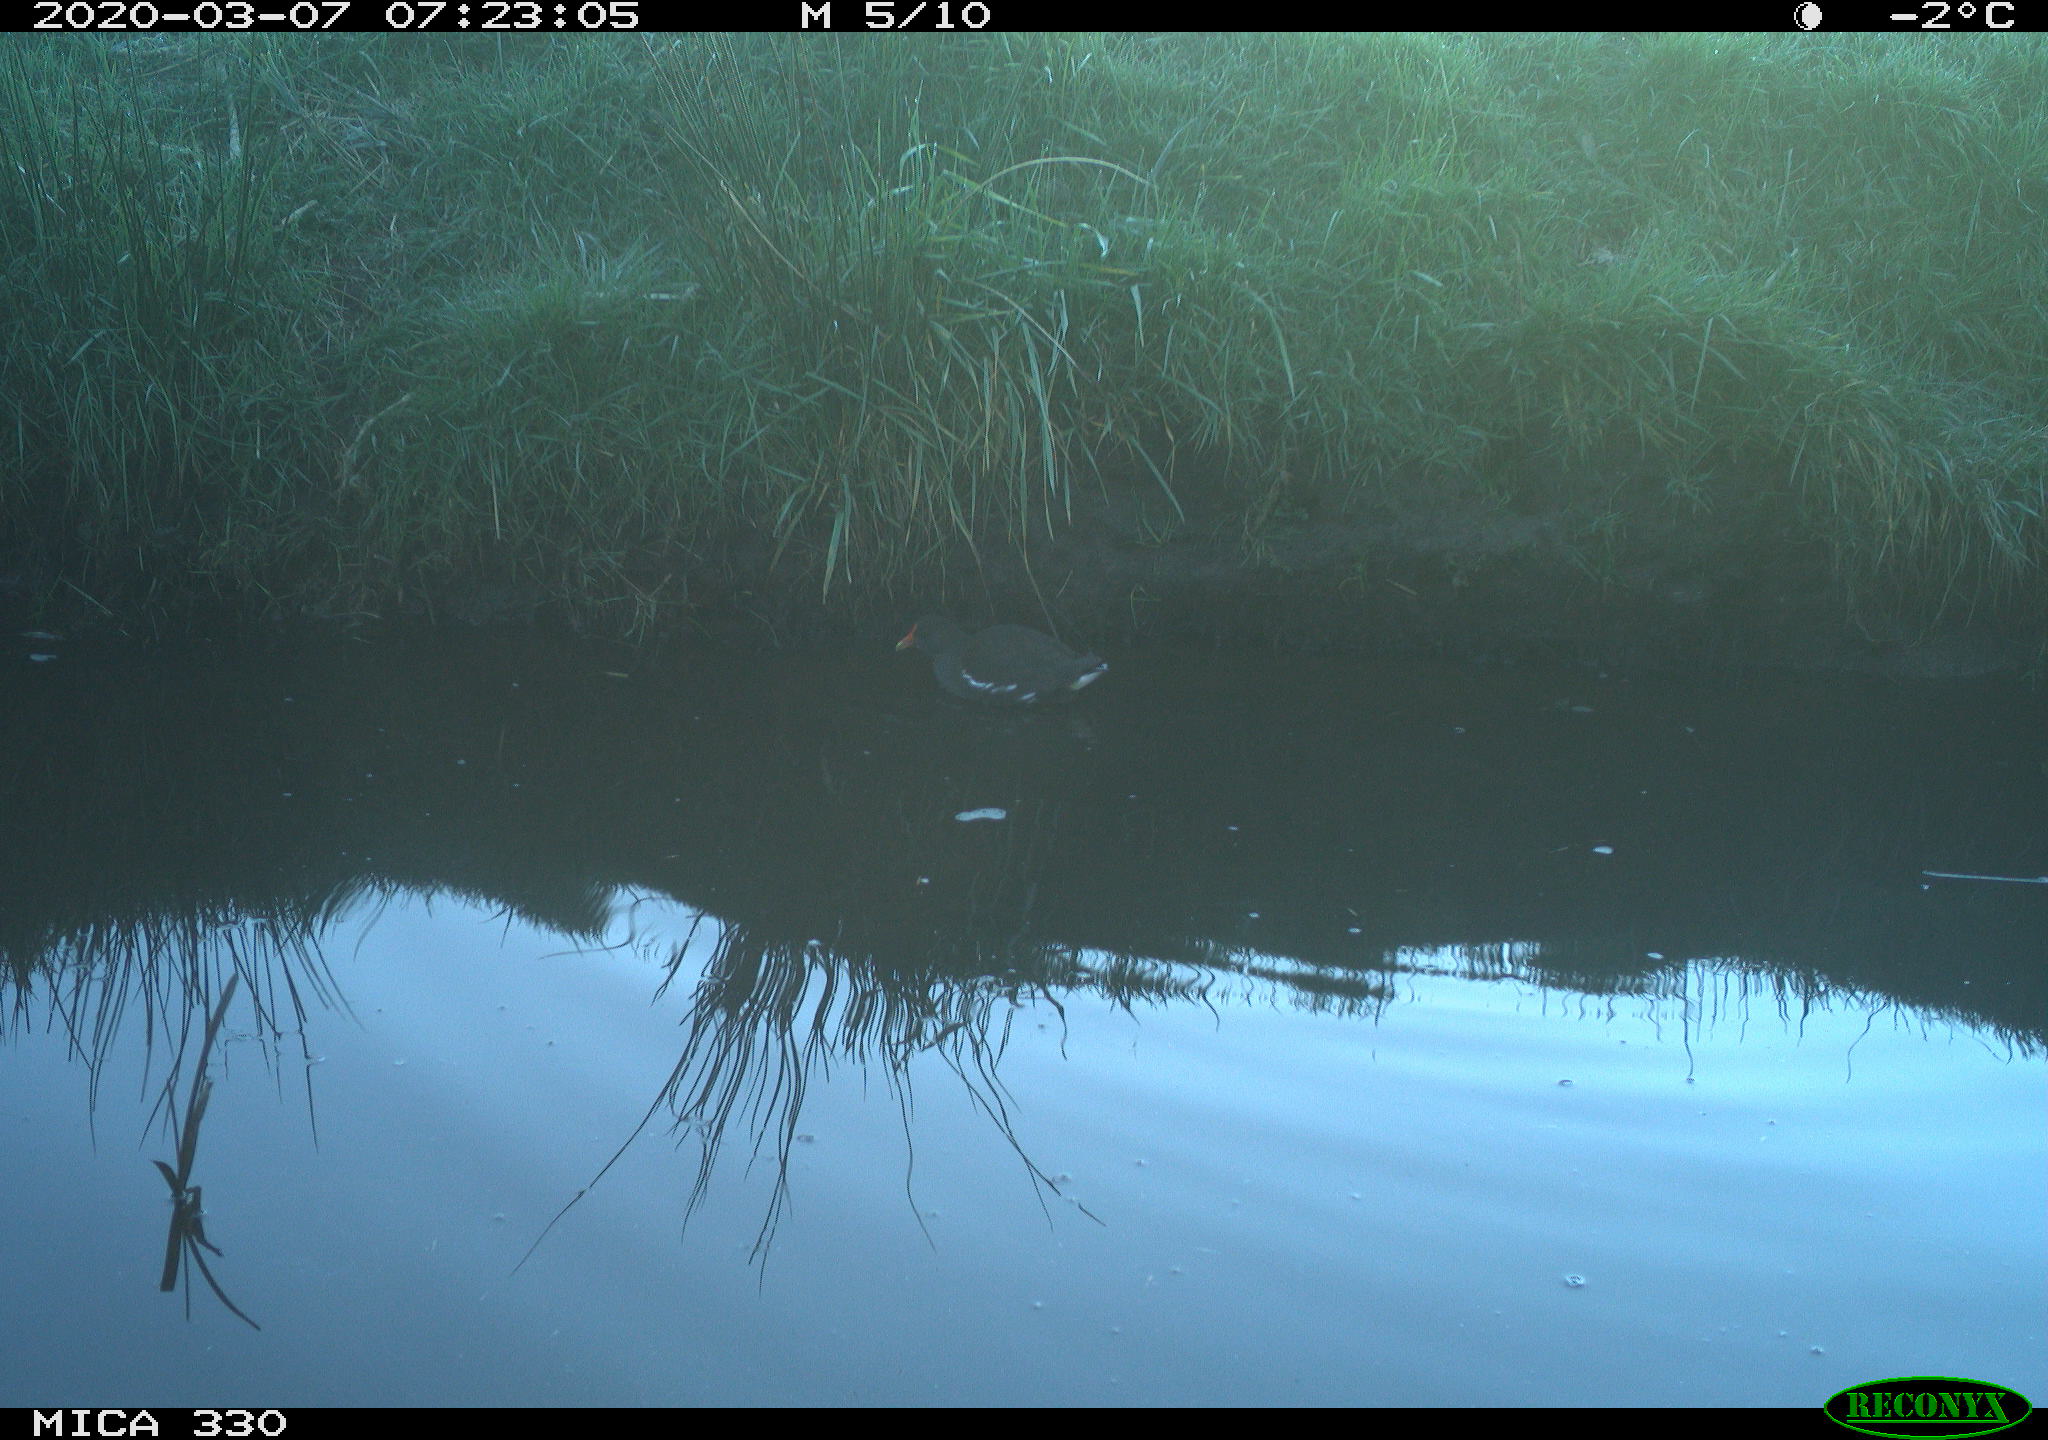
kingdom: Animalia
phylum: Chordata
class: Aves
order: Gruiformes
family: Rallidae
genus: Gallinula
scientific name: Gallinula chloropus
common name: Common moorhen
